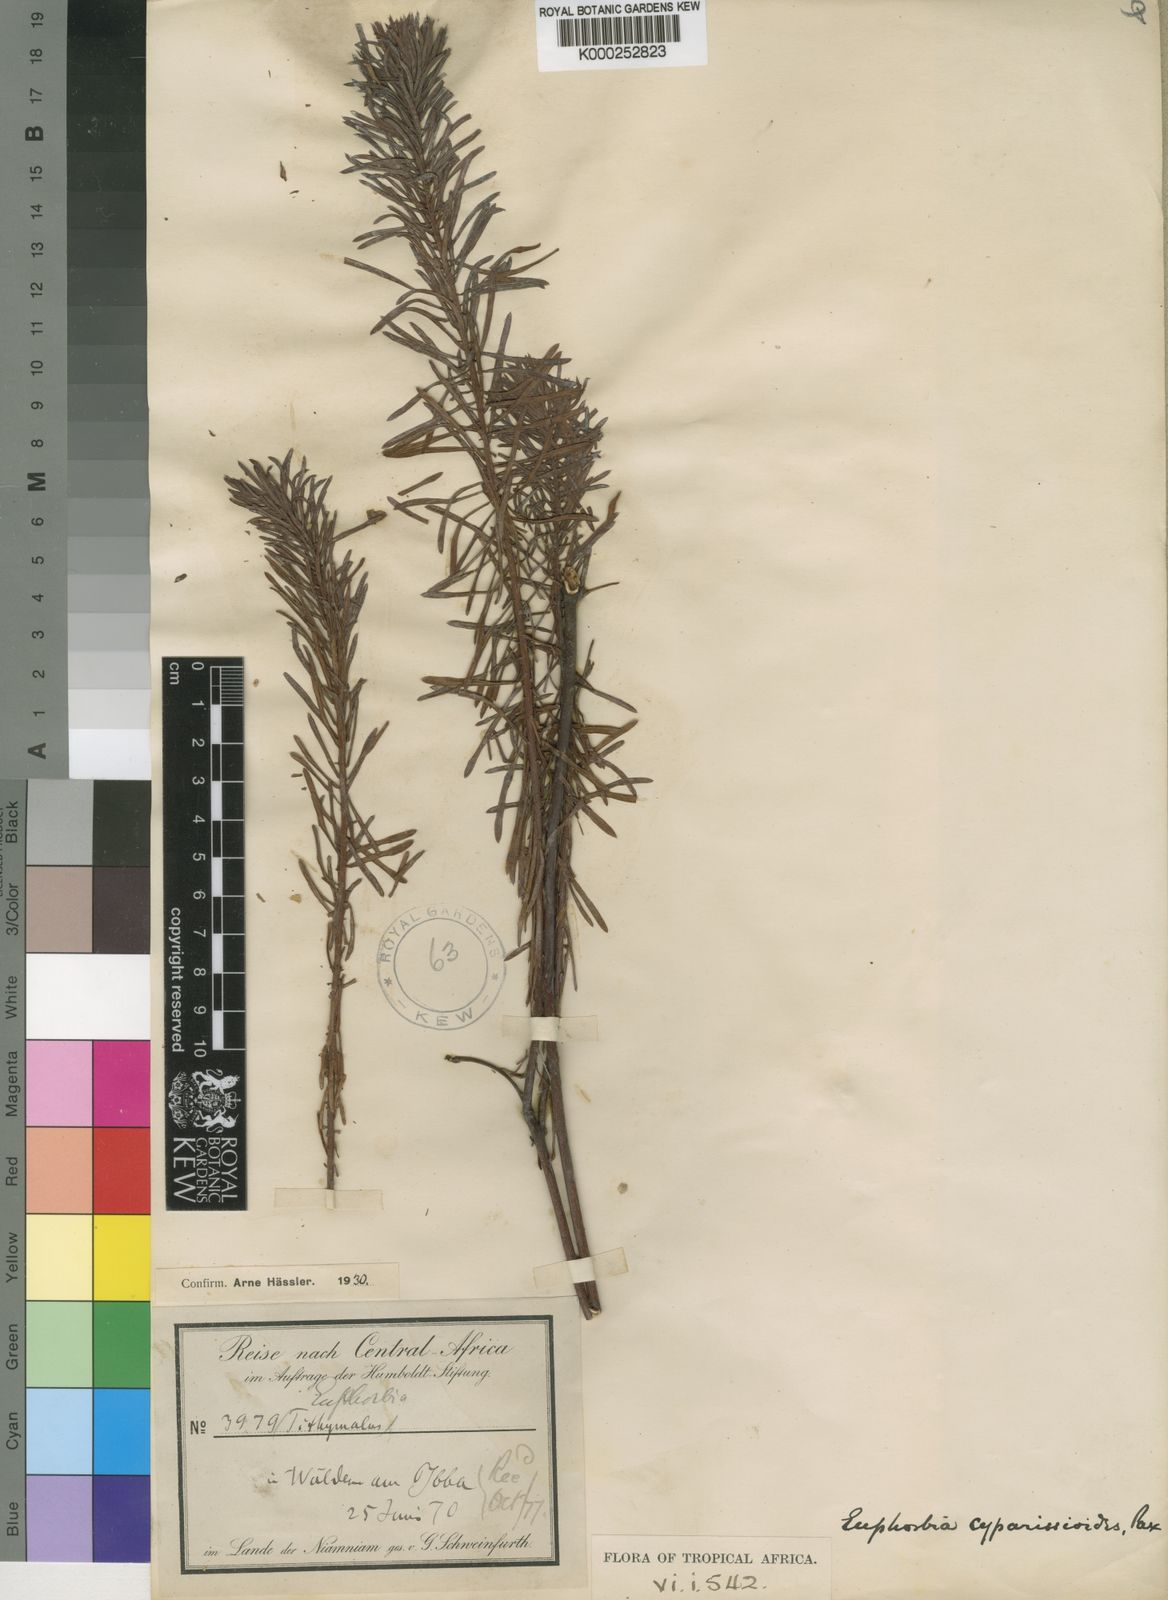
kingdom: Plantae
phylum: Tracheophyta
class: Magnoliopsida
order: Malpighiales
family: Euphorbiaceae
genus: Euphorbia
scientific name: Euphorbia cyparissioides
